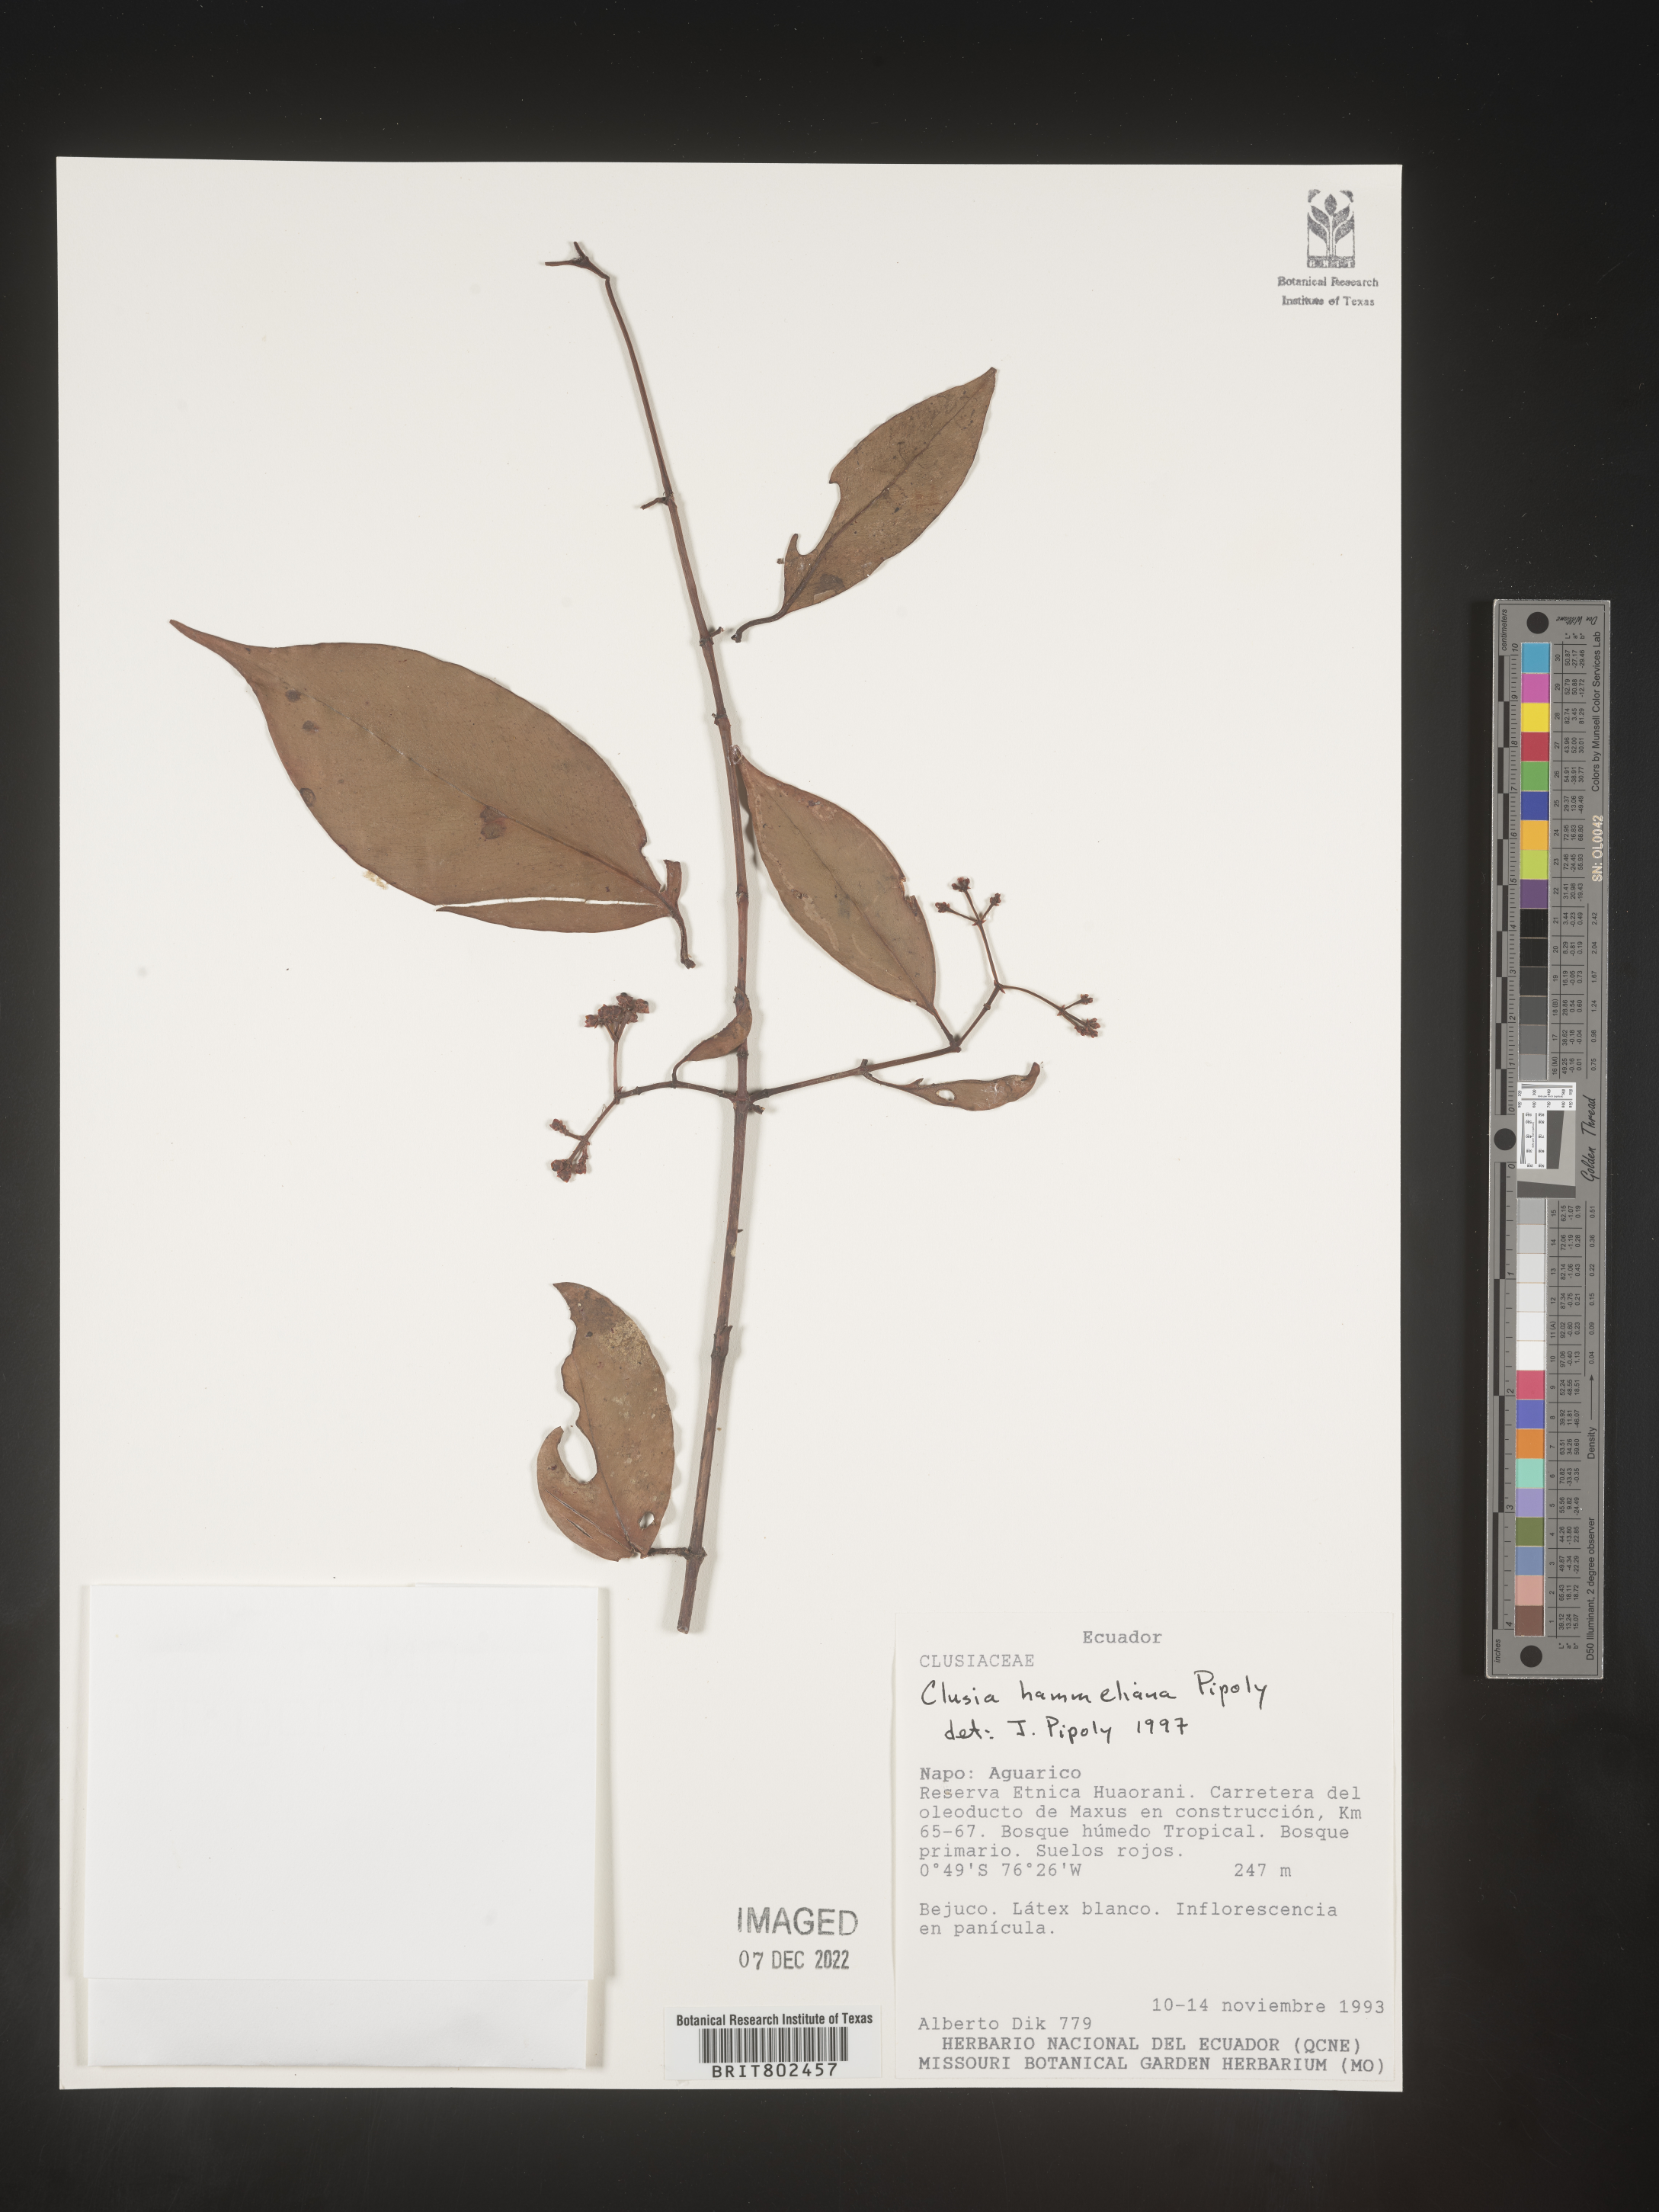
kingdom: Plantae
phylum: Tracheophyta
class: Magnoliopsida
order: Malpighiales
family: Clusiaceae
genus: Clusia
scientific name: Clusia hammeliana
